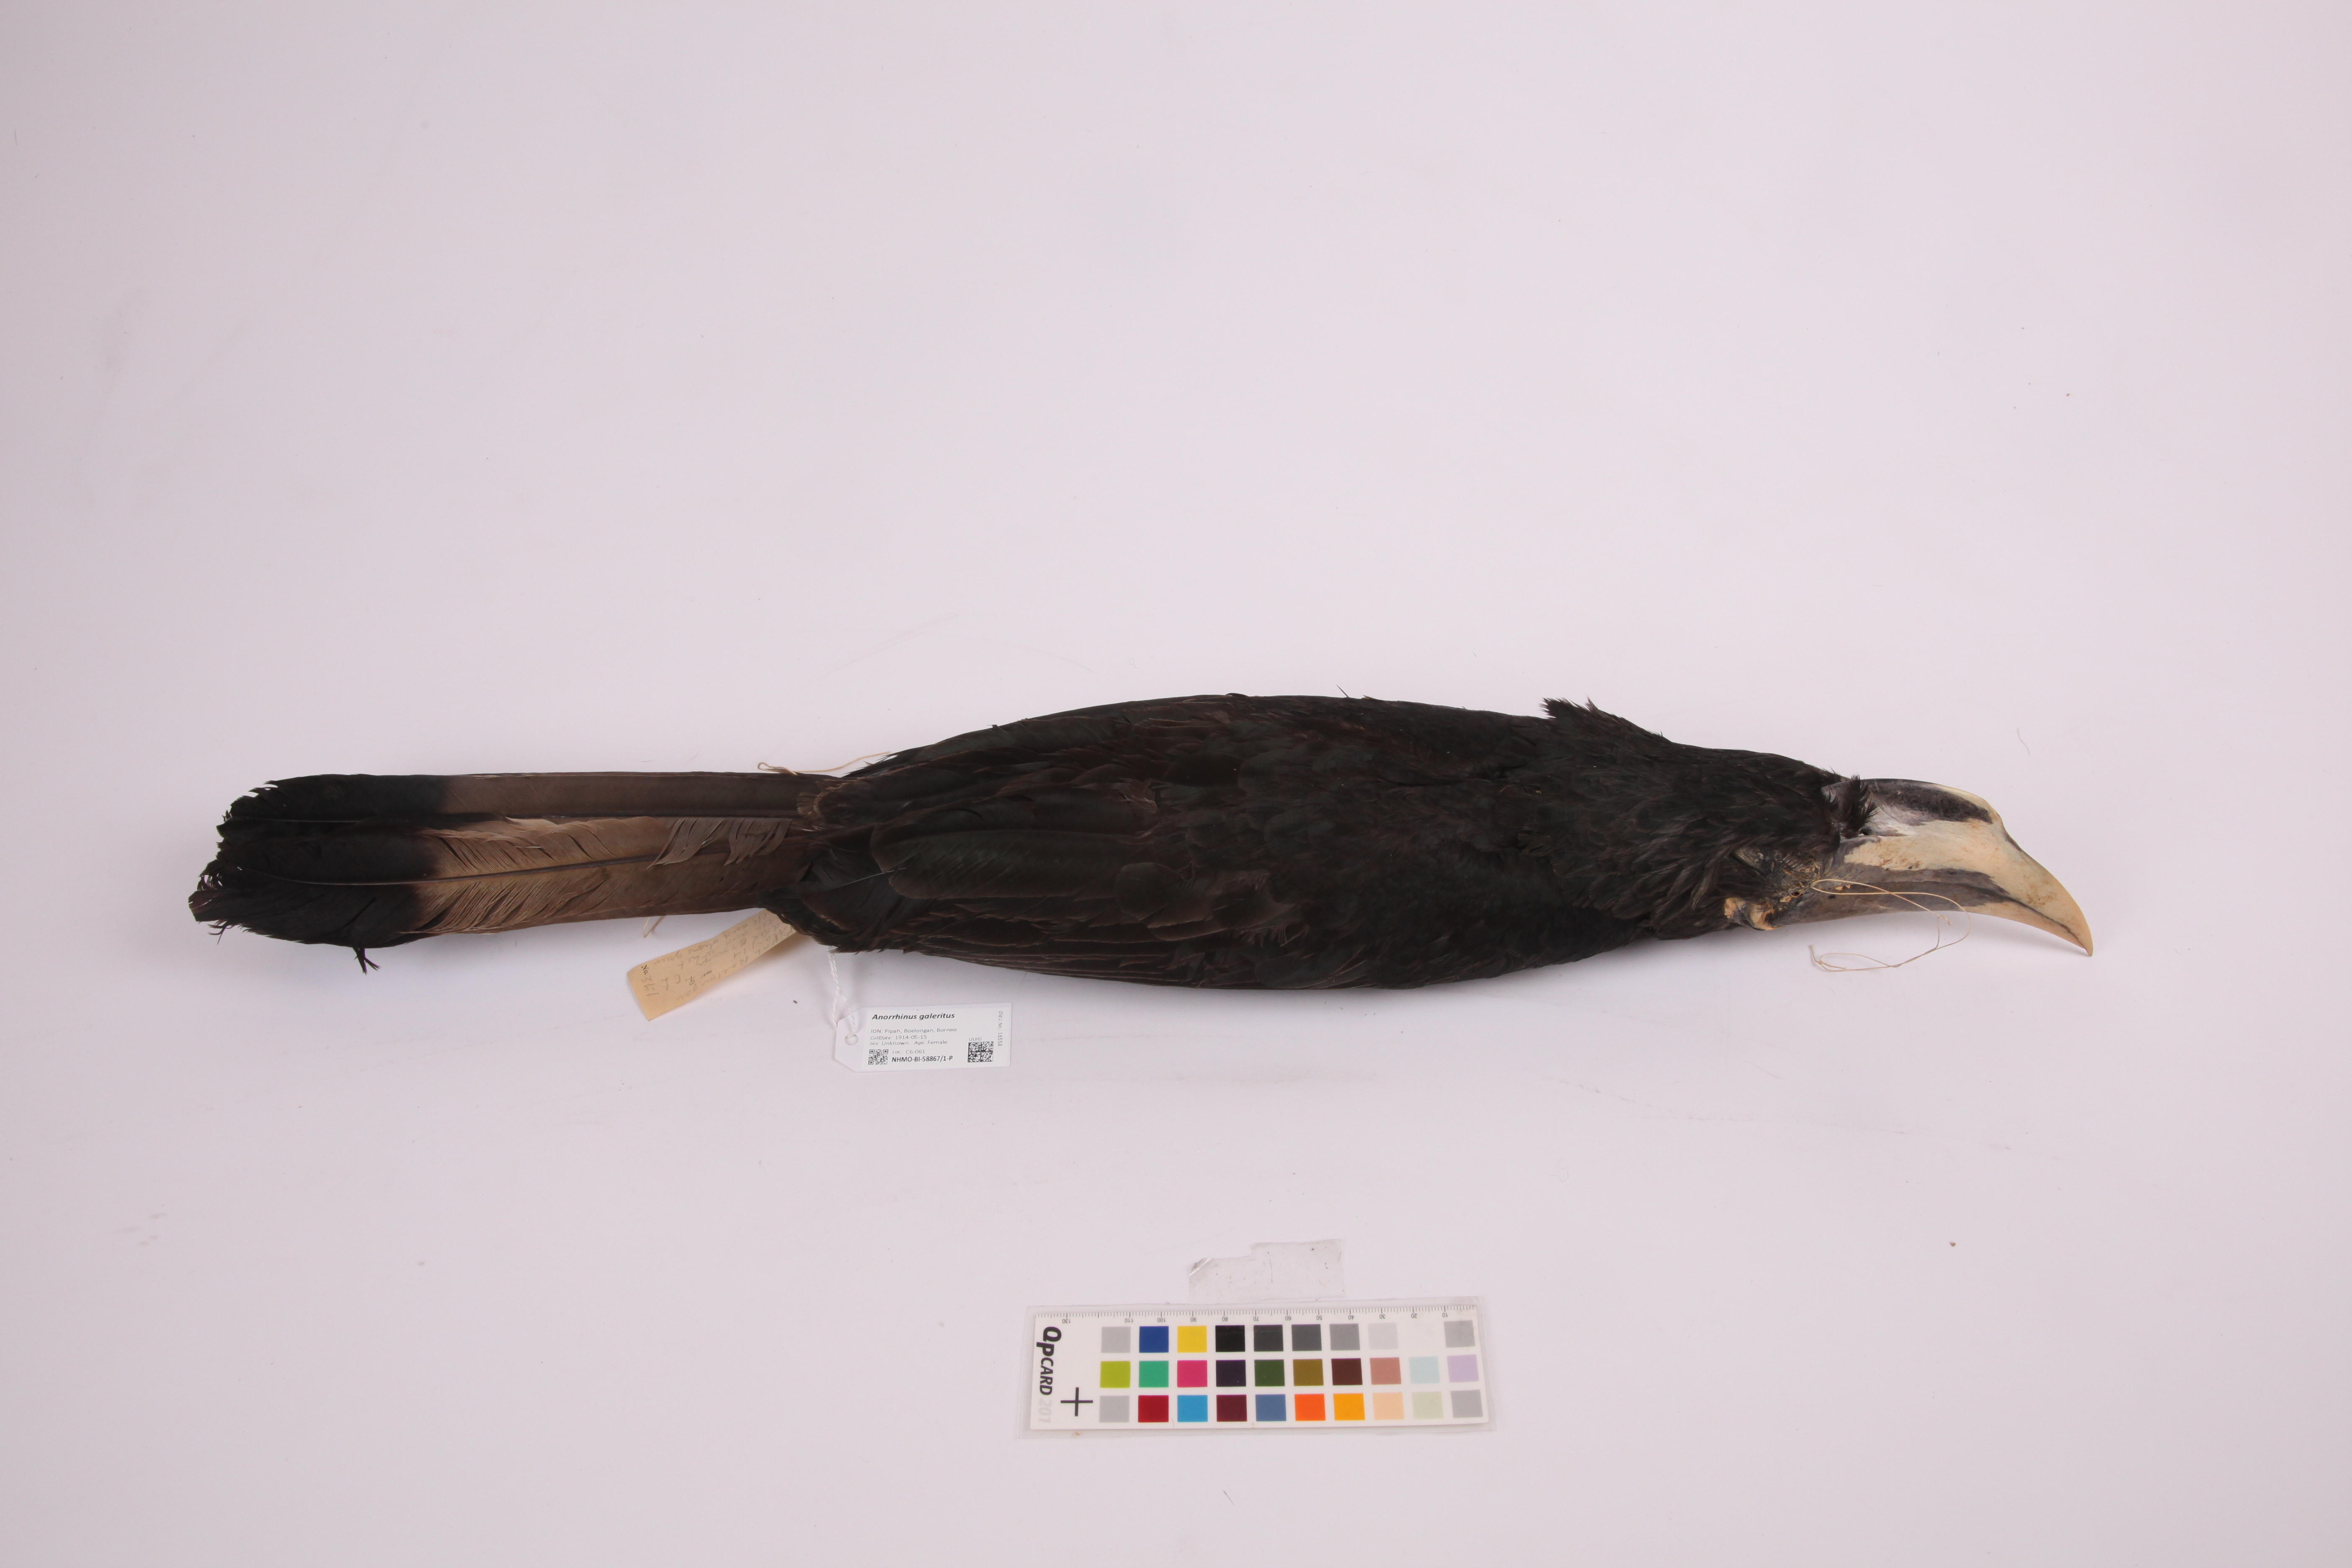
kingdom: Animalia
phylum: Chordata
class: Aves
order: Bucerotiformes
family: Bucerotidae
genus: Anorrhinus
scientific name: Anorrhinus galeritus
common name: Bushy-crested hornbill
